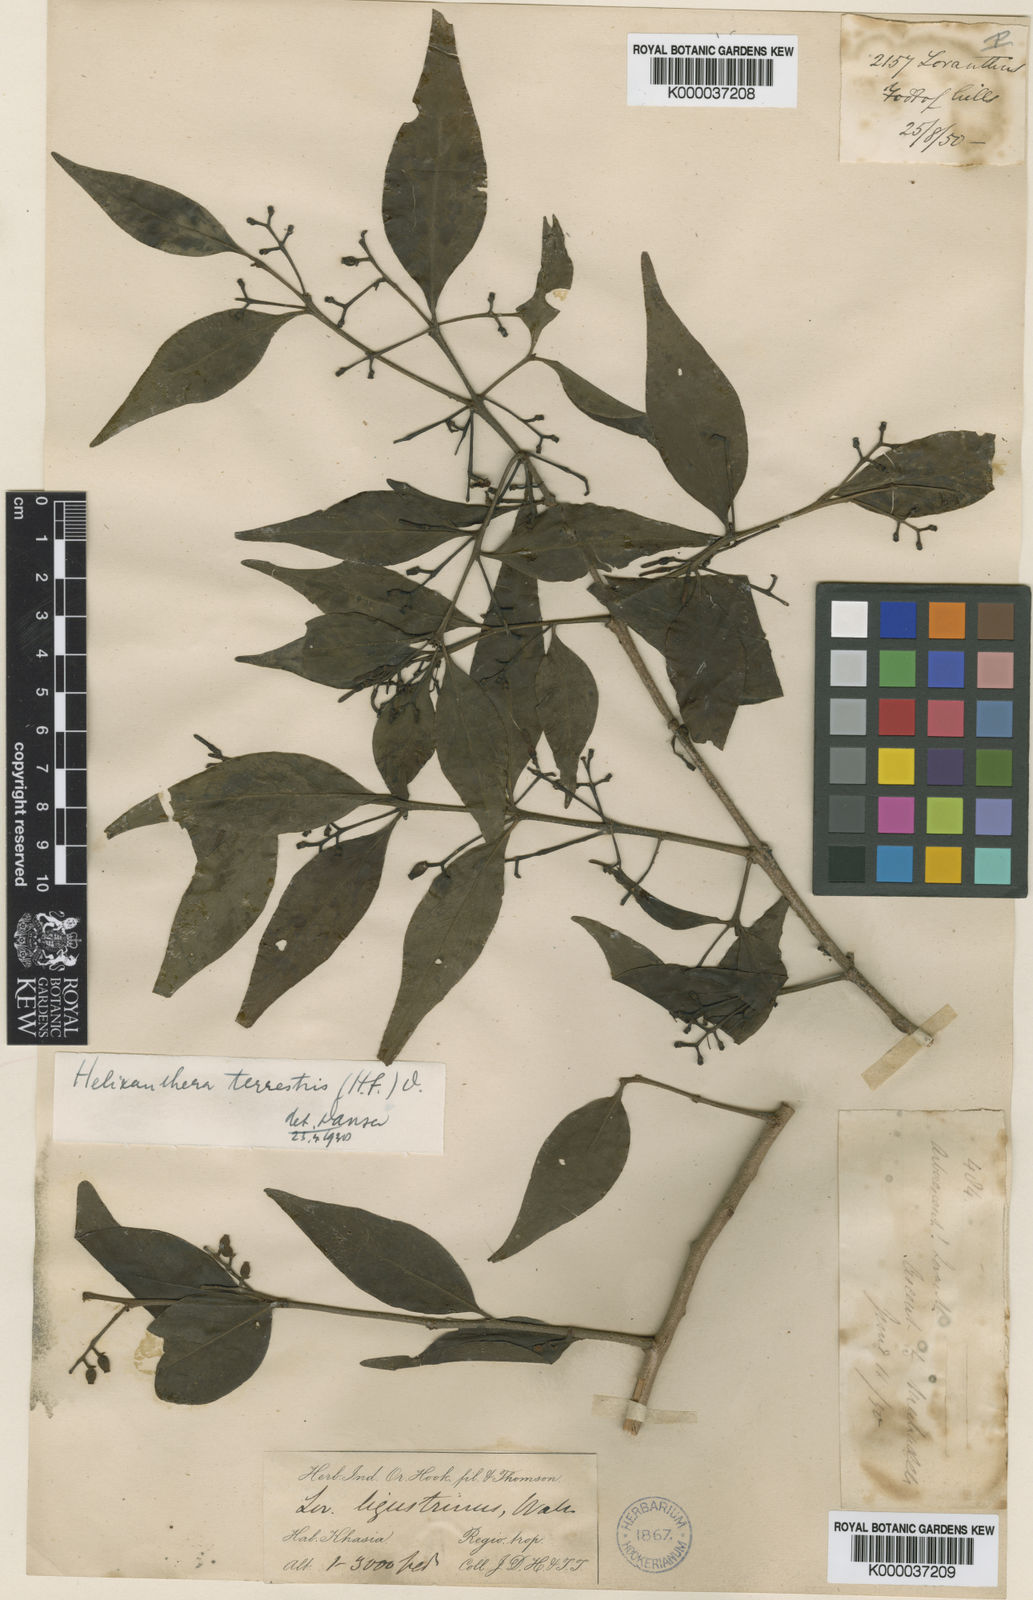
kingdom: Plantae
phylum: Tracheophyta
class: Magnoliopsida
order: Santalales
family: Loranthaceae
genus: Helixanthera
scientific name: Helixanthera ligustrina
